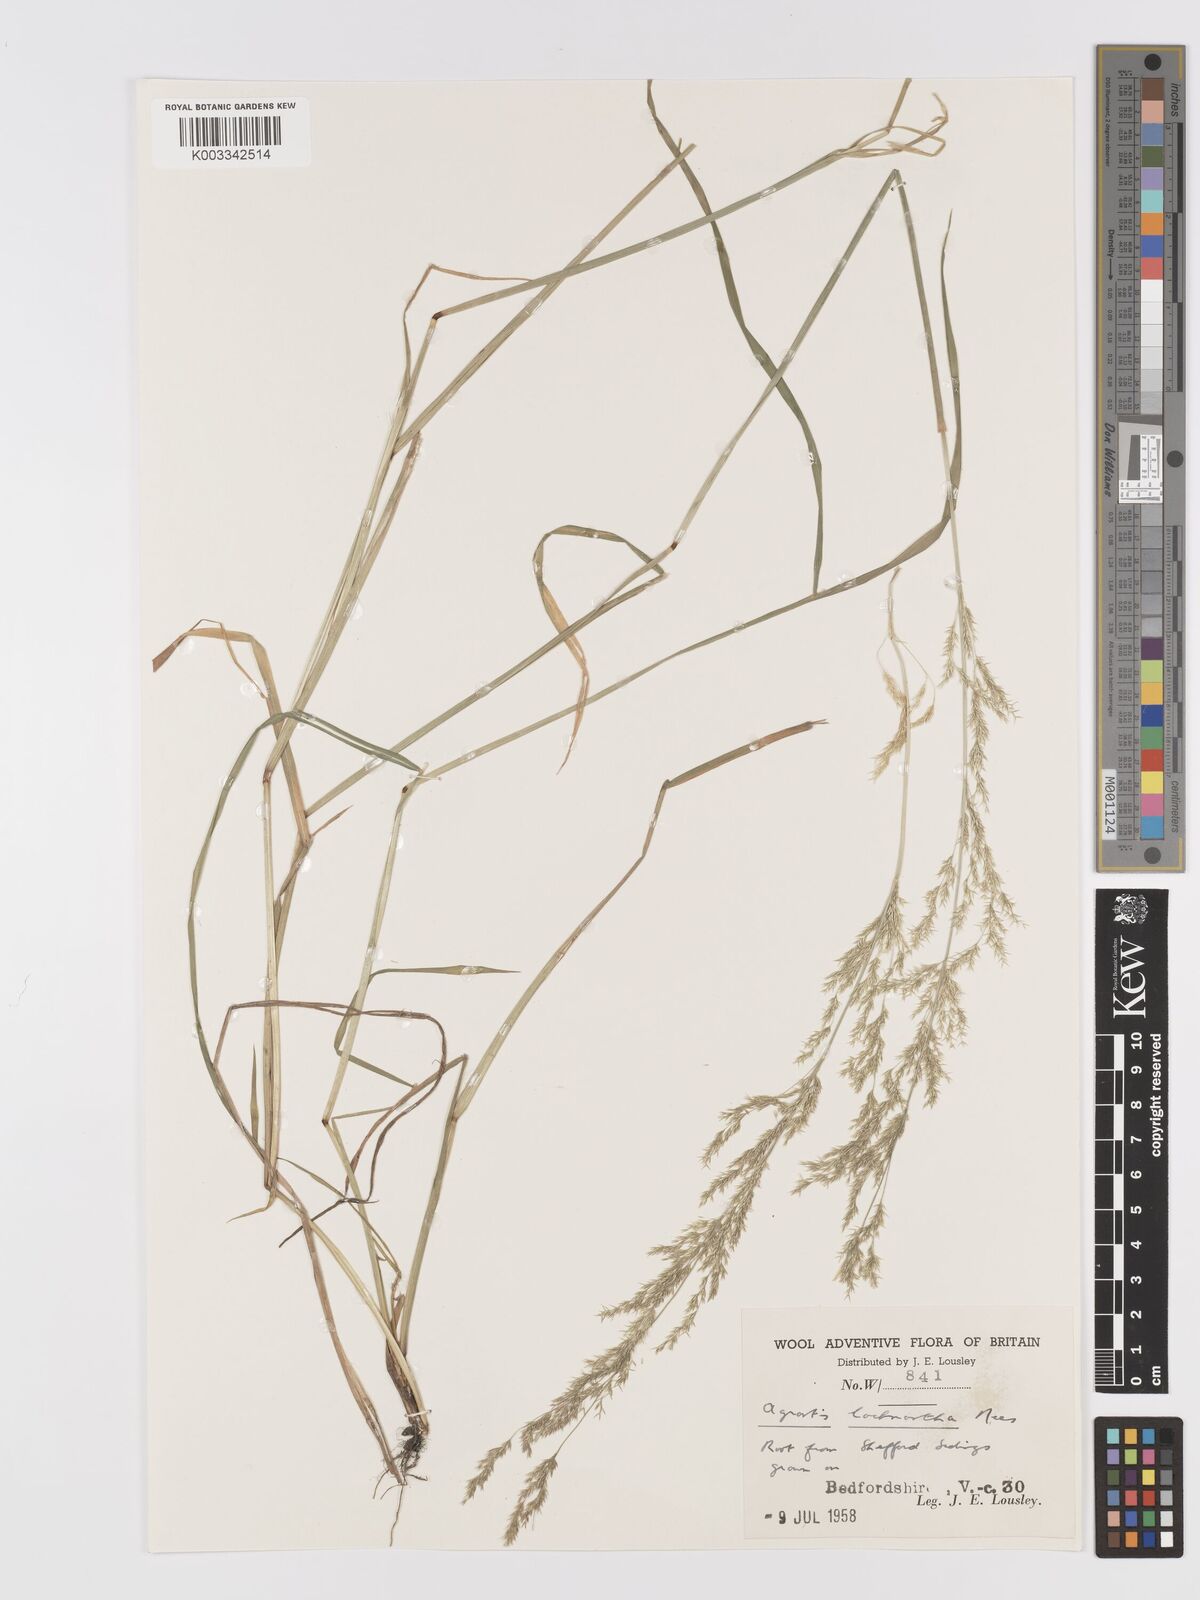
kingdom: Plantae
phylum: Tracheophyta
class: Liliopsida
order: Poales
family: Poaceae
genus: Lachnagrostis
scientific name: Lachnagrostis lachnantha
